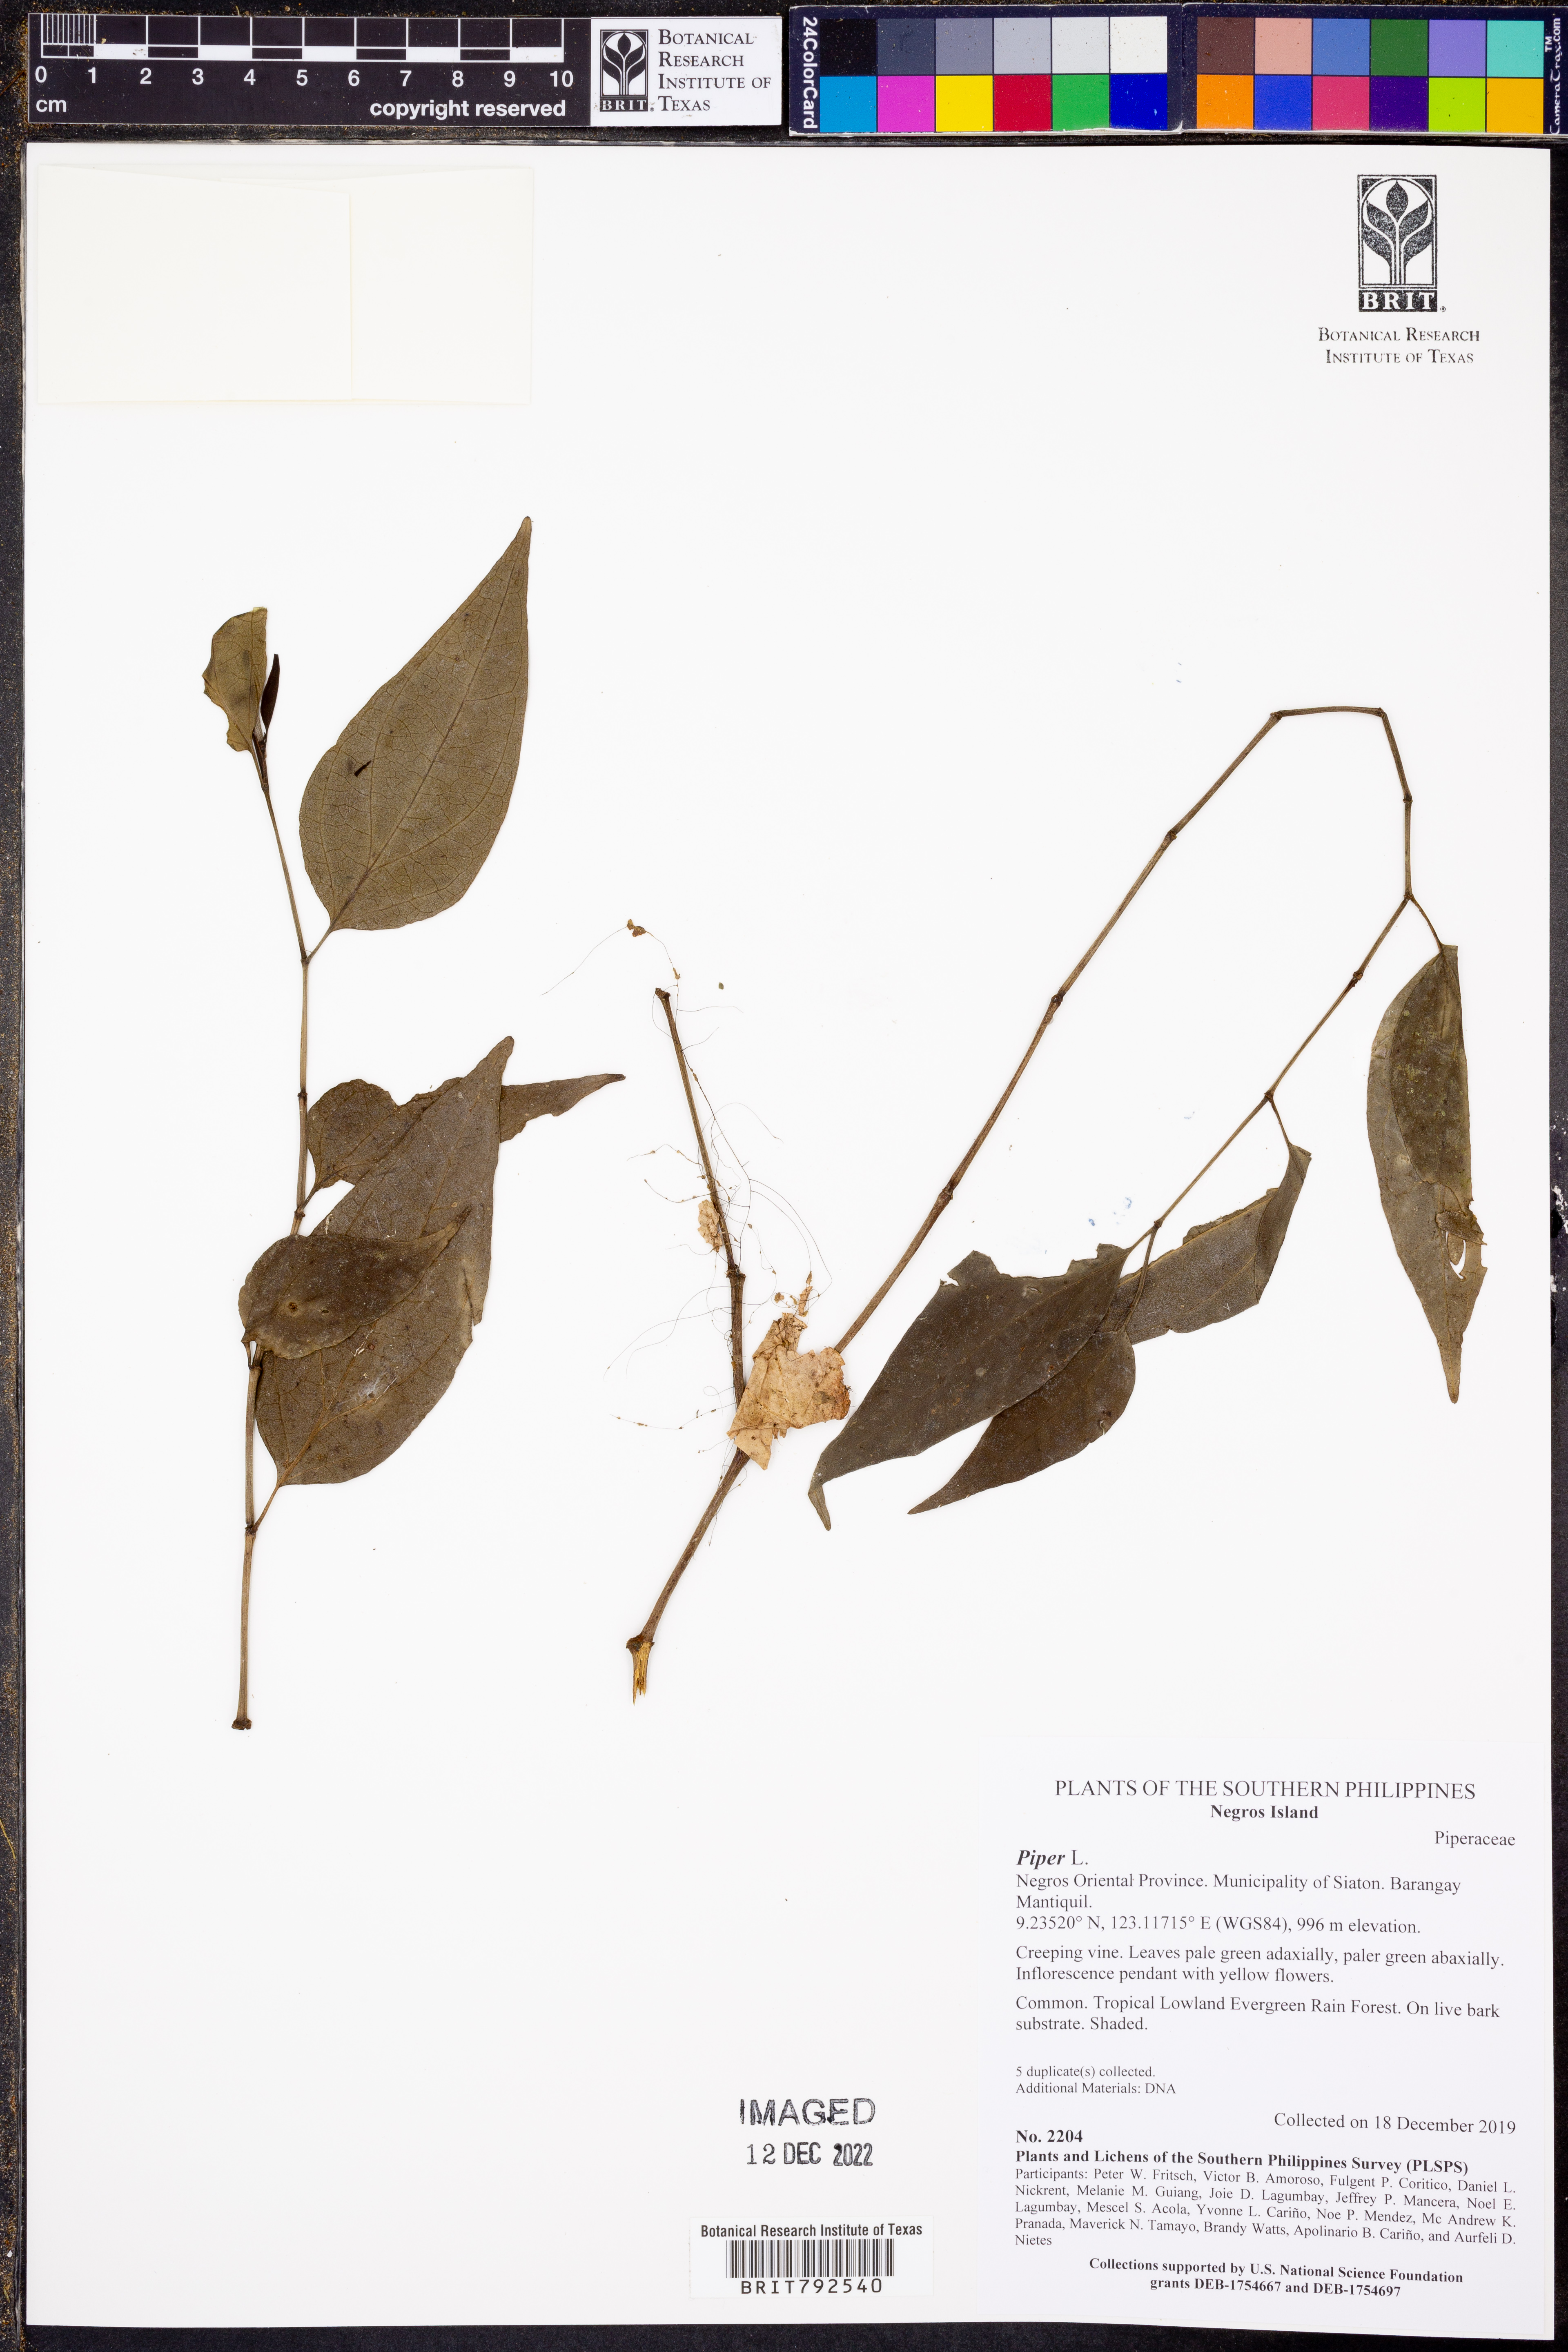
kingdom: Plantae
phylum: Tracheophyta
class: Magnoliopsida
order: Piperales
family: Piperaceae
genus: Piper
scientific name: Piper
